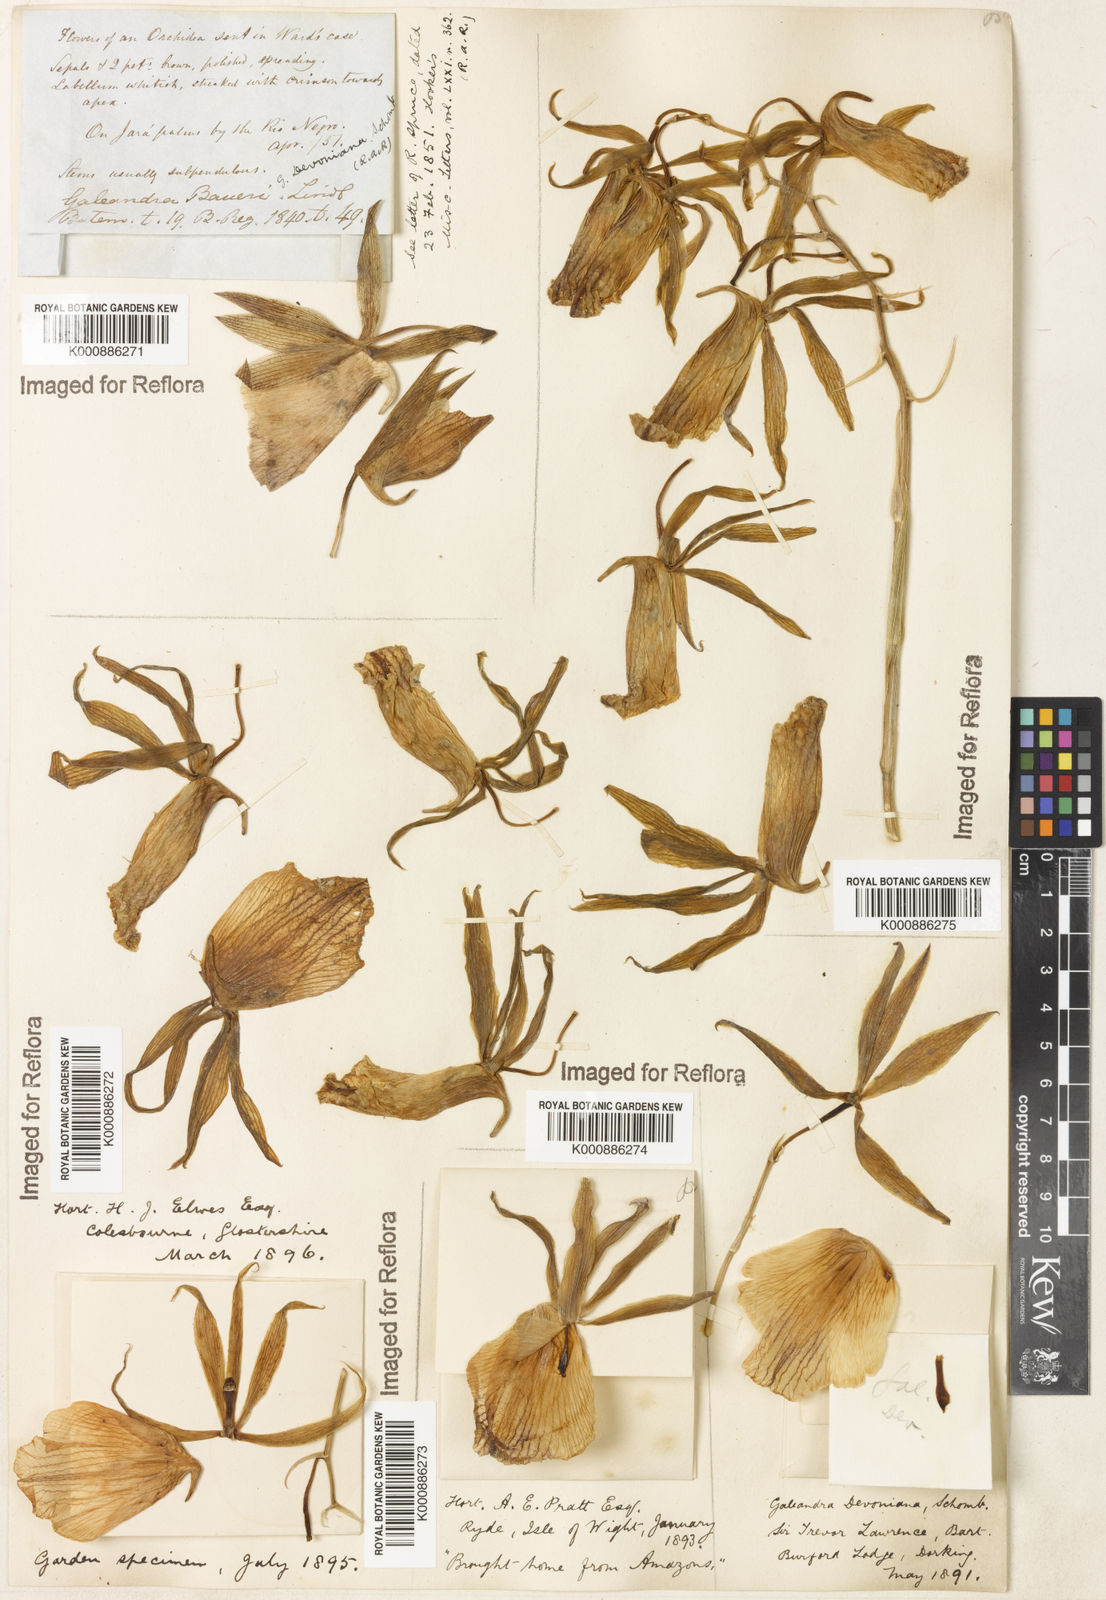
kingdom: Plantae
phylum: Tracheophyta
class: Liliopsida
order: Asparagales
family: Orchidaceae
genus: Galeandra
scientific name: Galeandra devoniana
